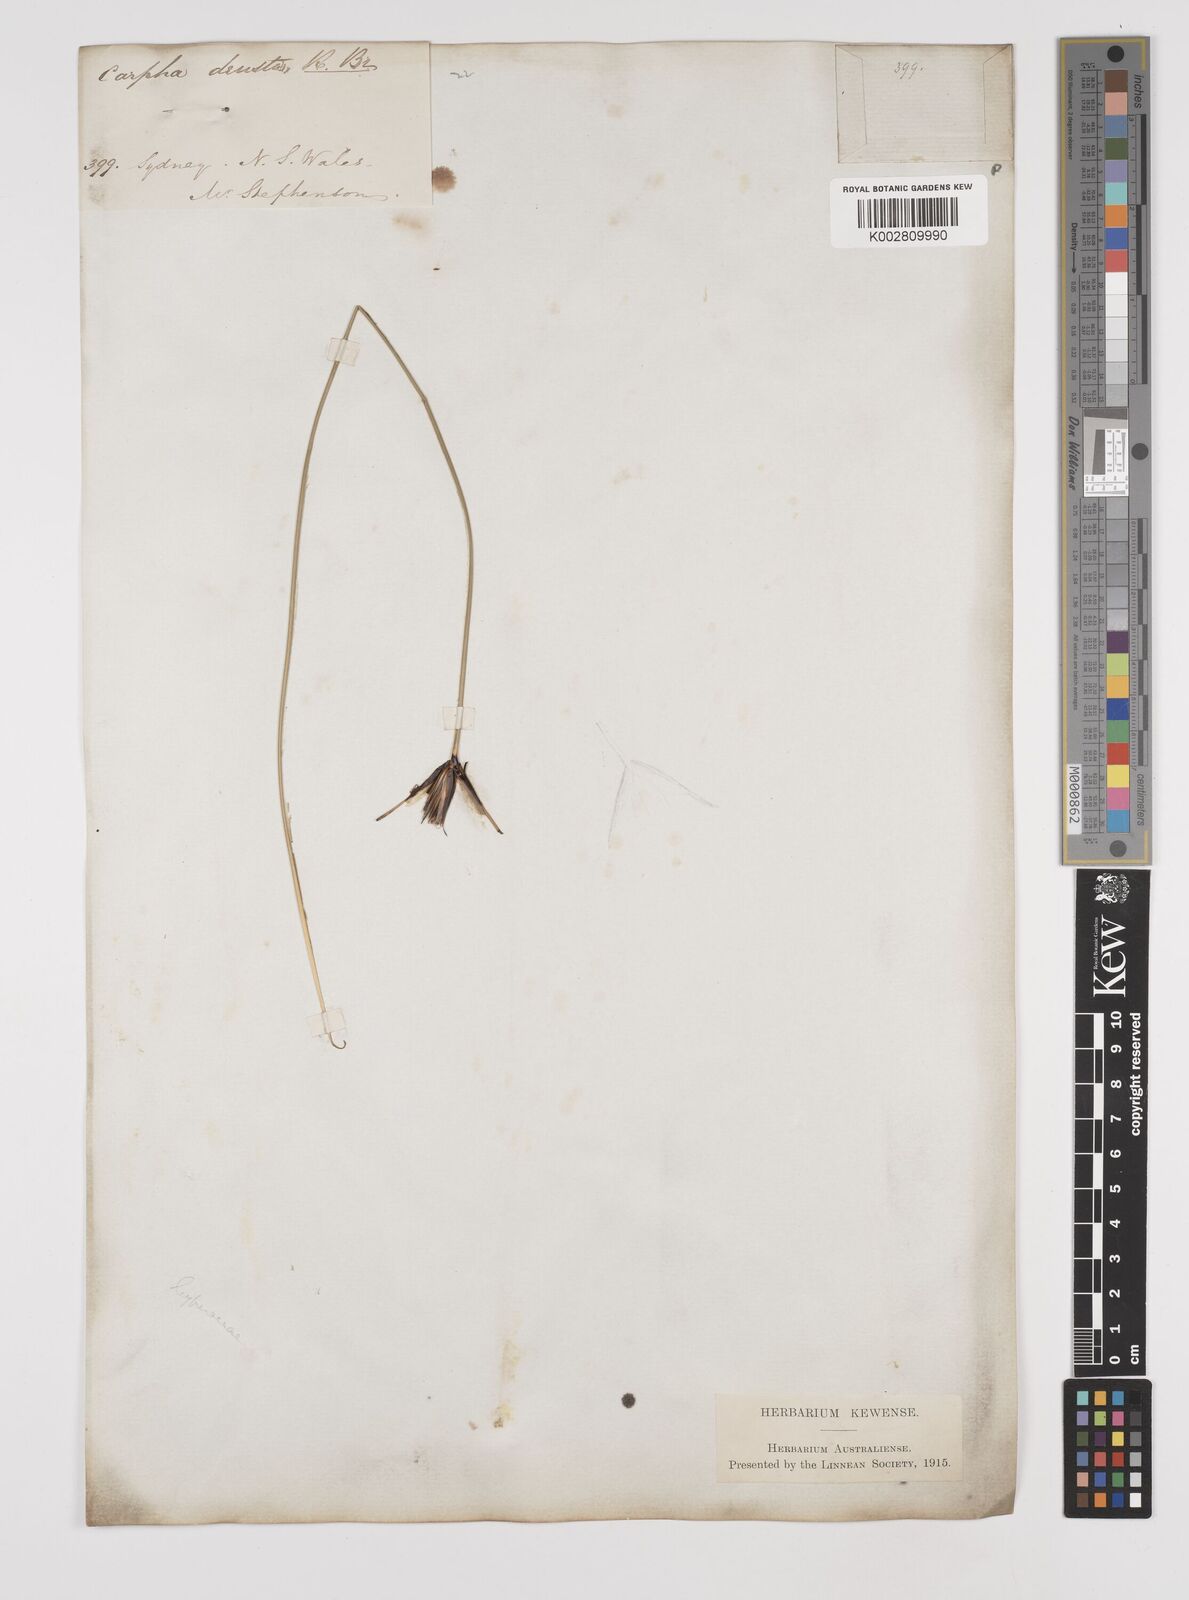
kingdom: Plantae
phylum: Tracheophyta
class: Liliopsida
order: Poales
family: Cyperaceae
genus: Ptilothrix
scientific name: Ptilothrix deusta
